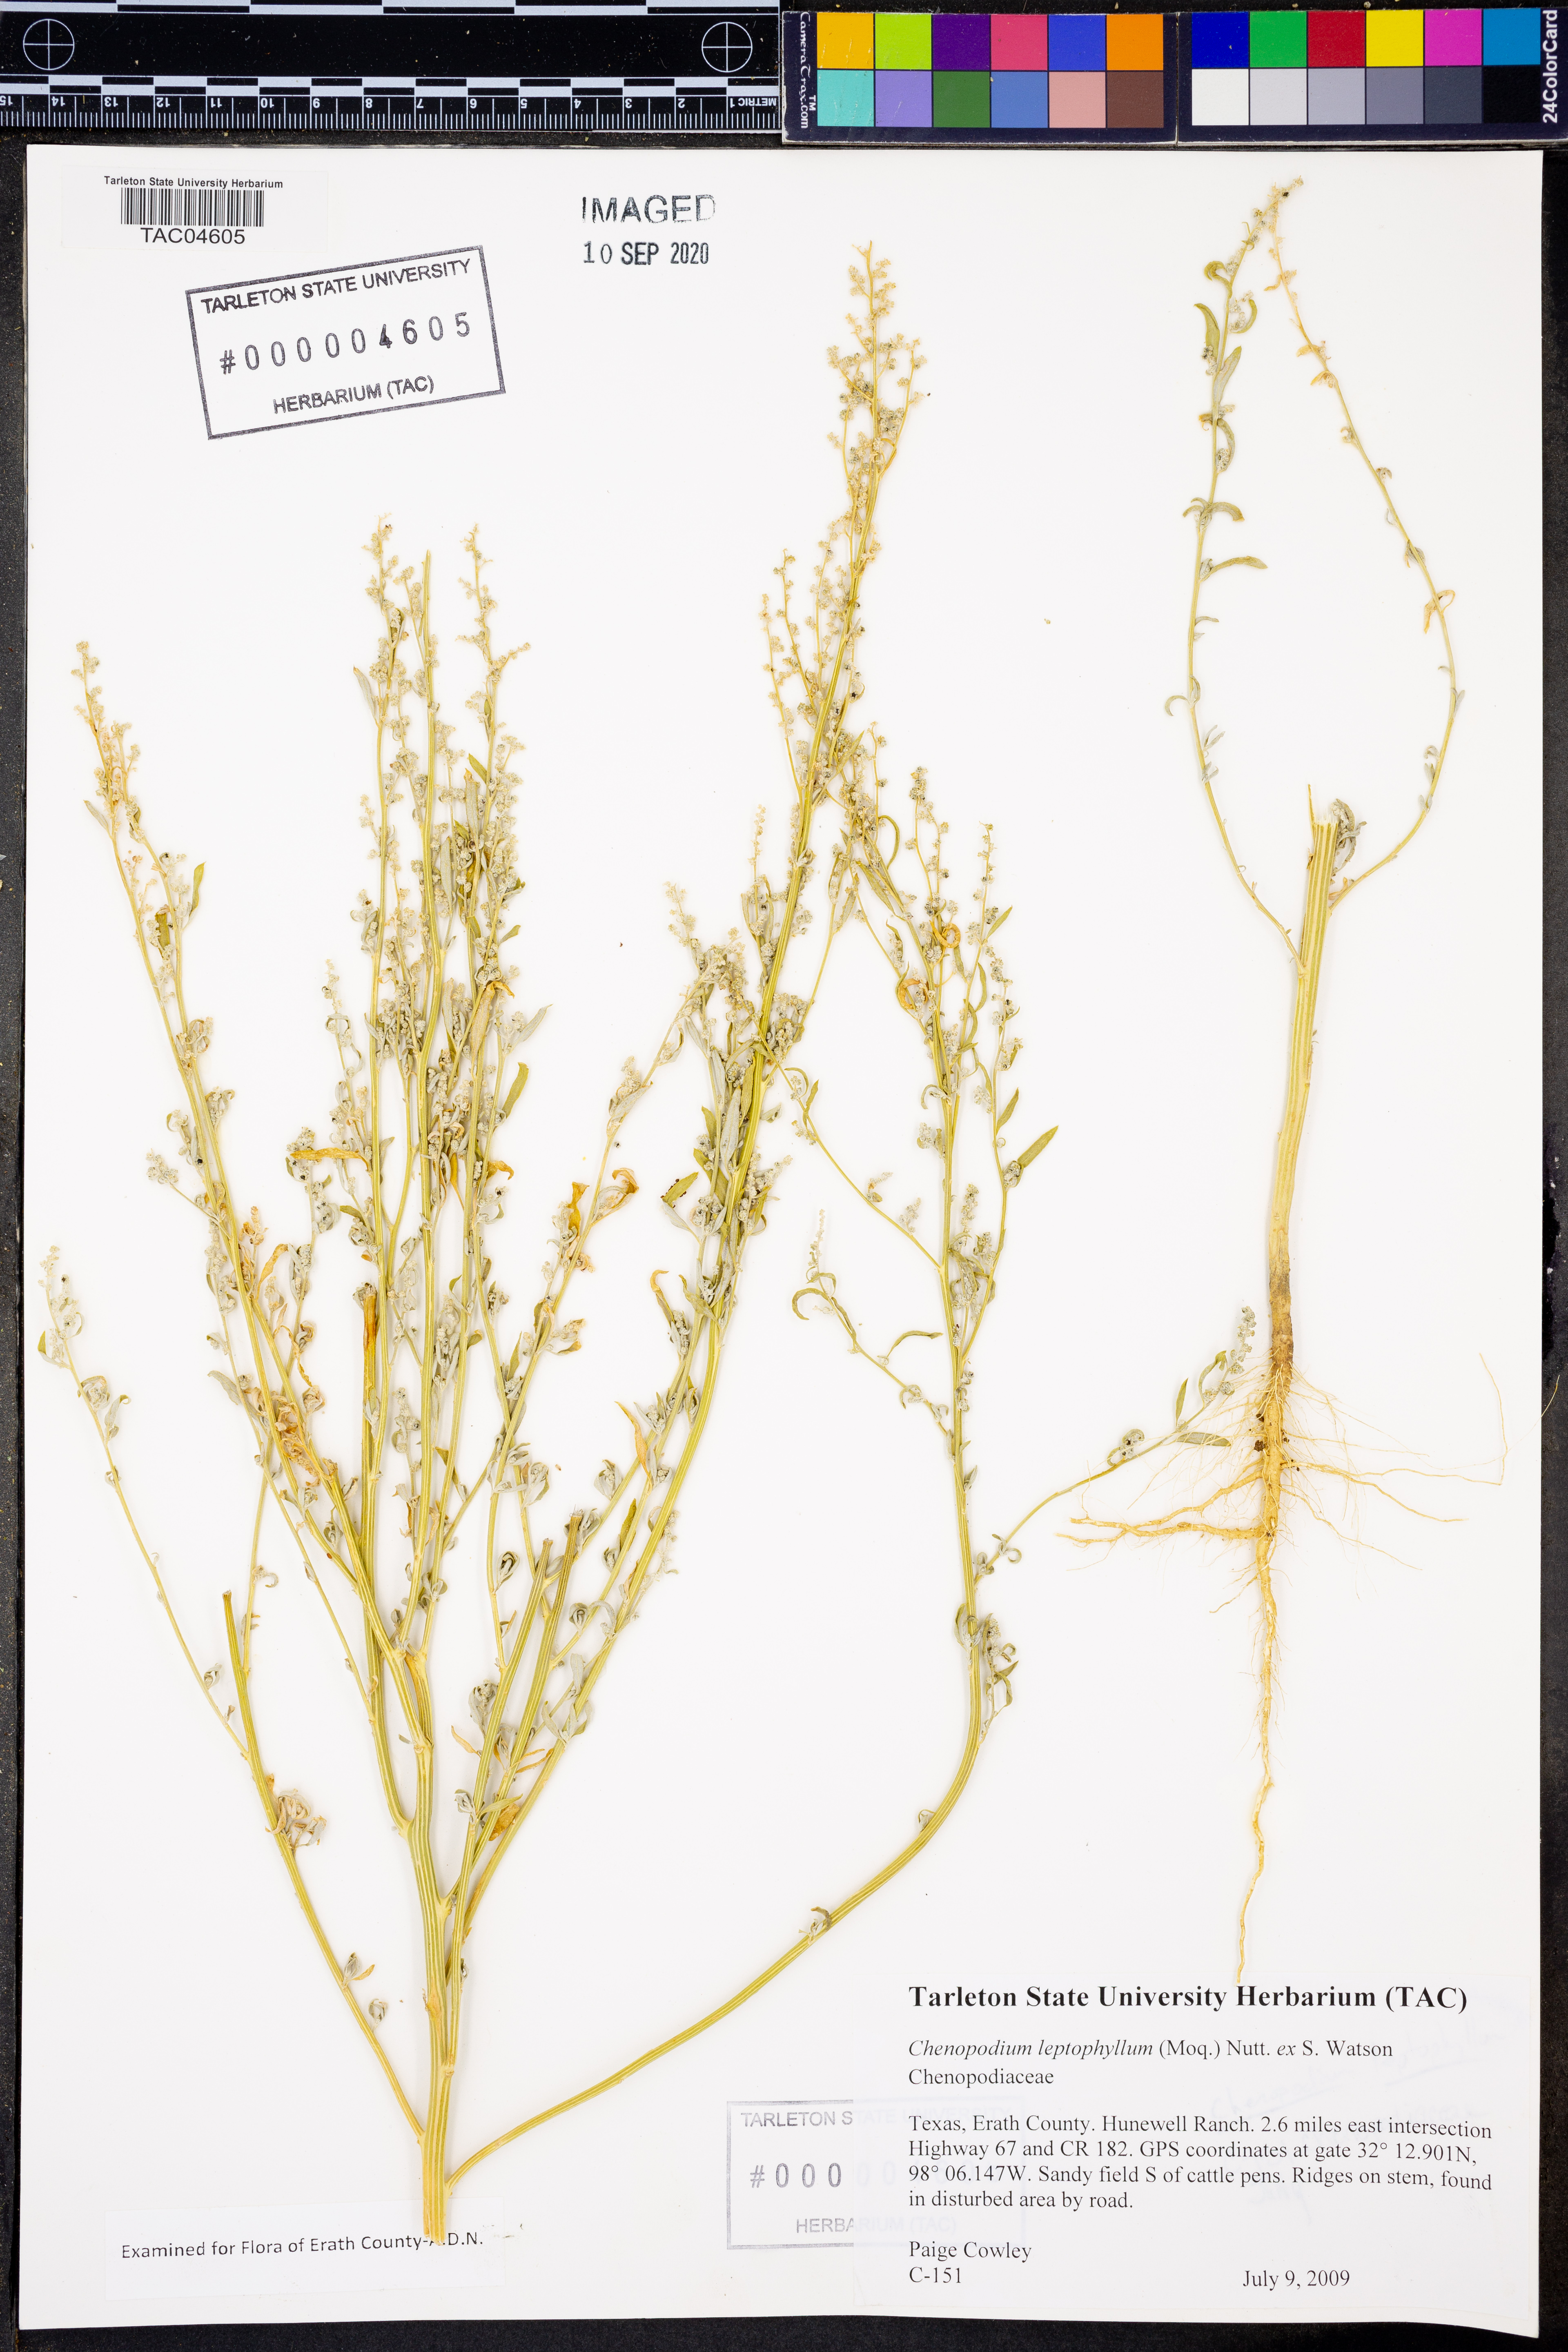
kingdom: Plantae
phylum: Tracheophyta
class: Magnoliopsida
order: Caryophyllales
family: Amaranthaceae
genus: Chenopodium
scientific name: Chenopodium leptophyllum
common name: Narrow-leaf goosefoot
